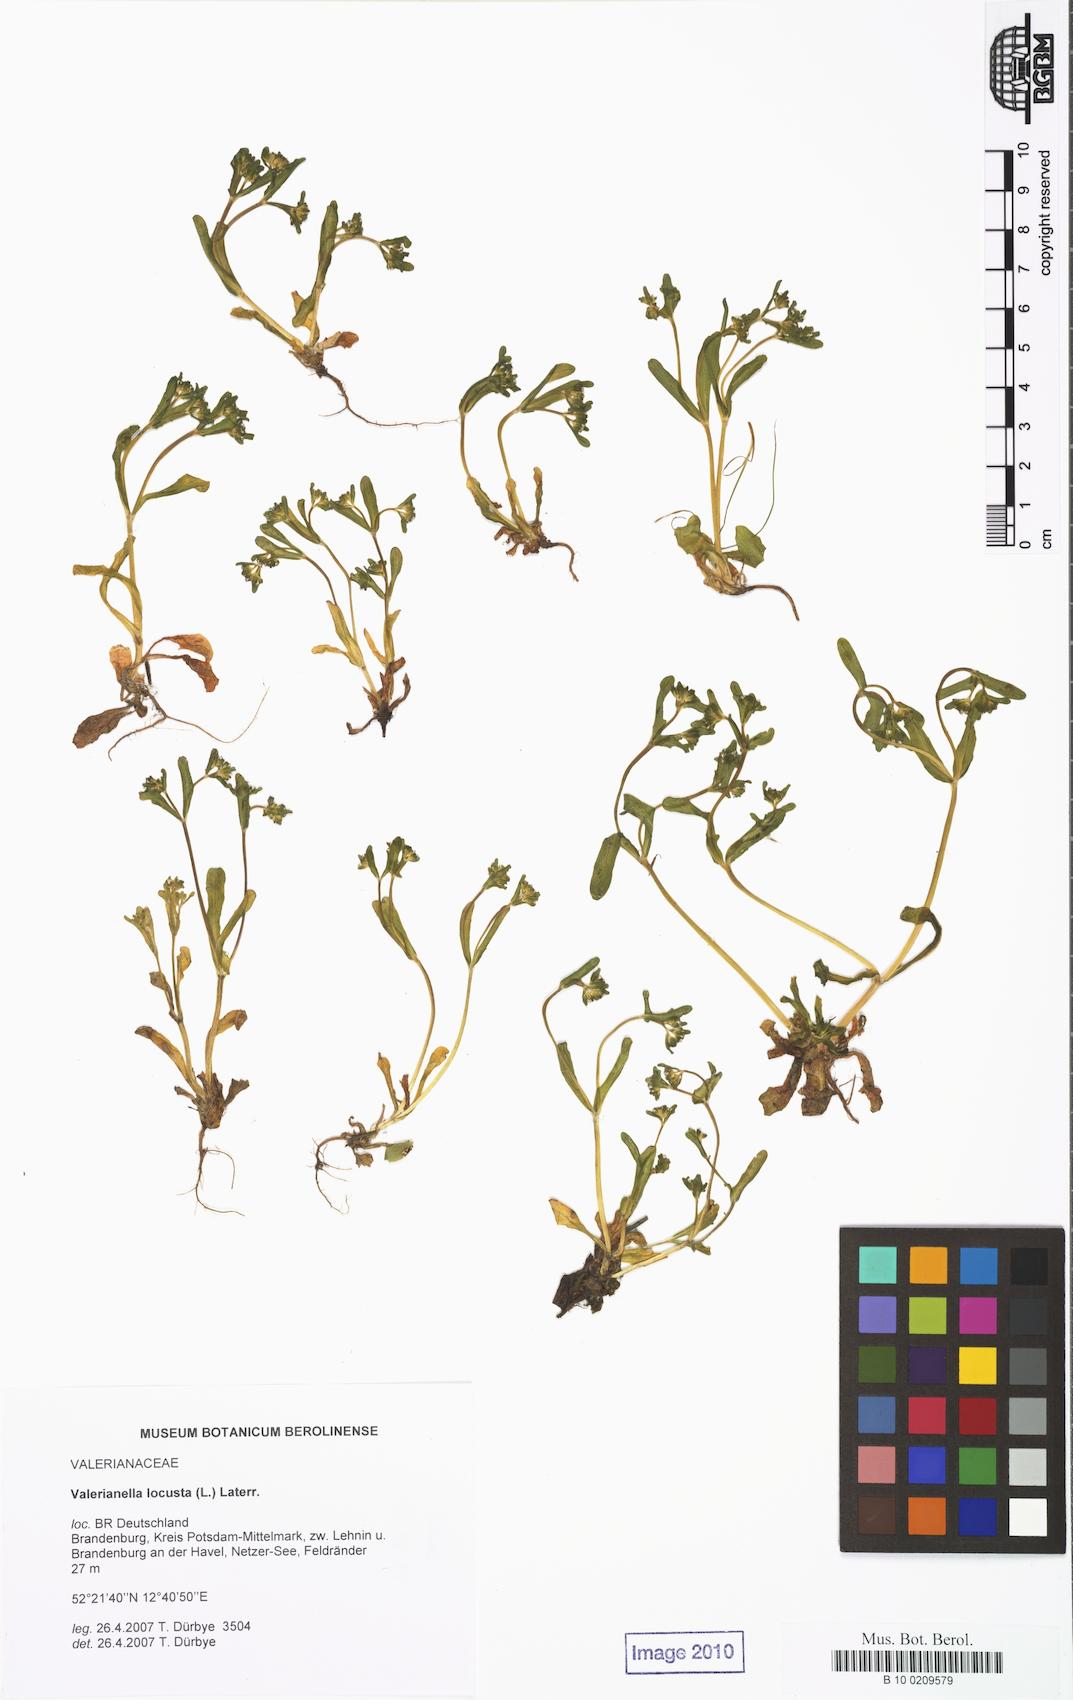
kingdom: Plantae
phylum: Tracheophyta
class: Magnoliopsida
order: Dipsacales
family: Caprifoliaceae
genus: Valerianella
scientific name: Valerianella locusta
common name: Common cornsalad
